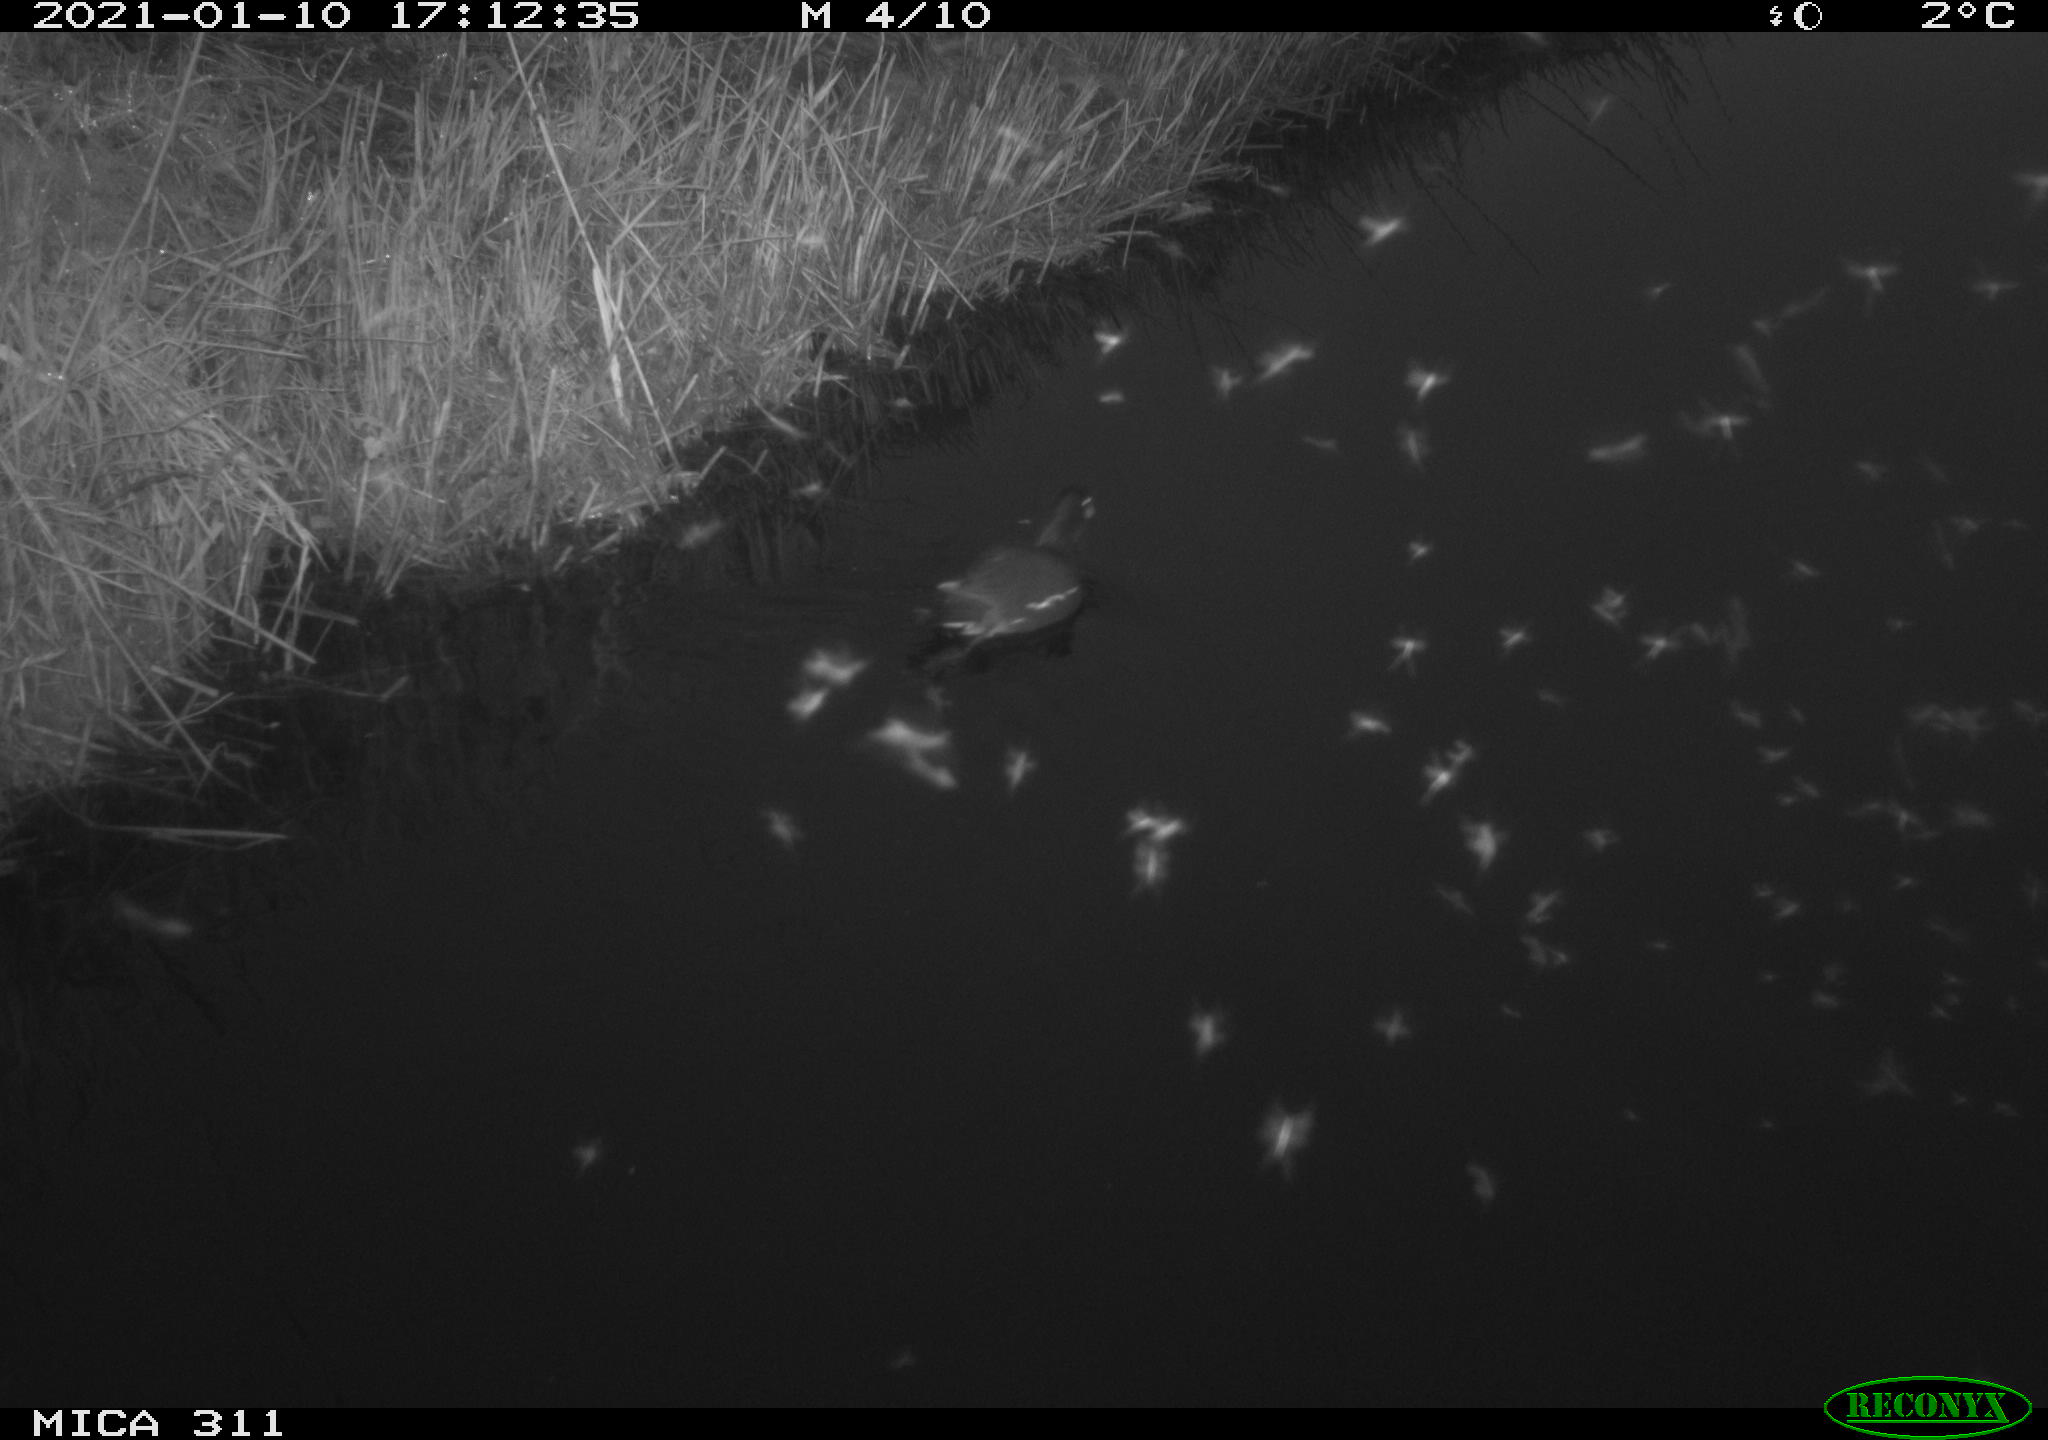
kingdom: Animalia
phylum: Chordata
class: Aves
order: Gruiformes
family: Rallidae
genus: Gallinula
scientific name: Gallinula chloropus
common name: Common moorhen
